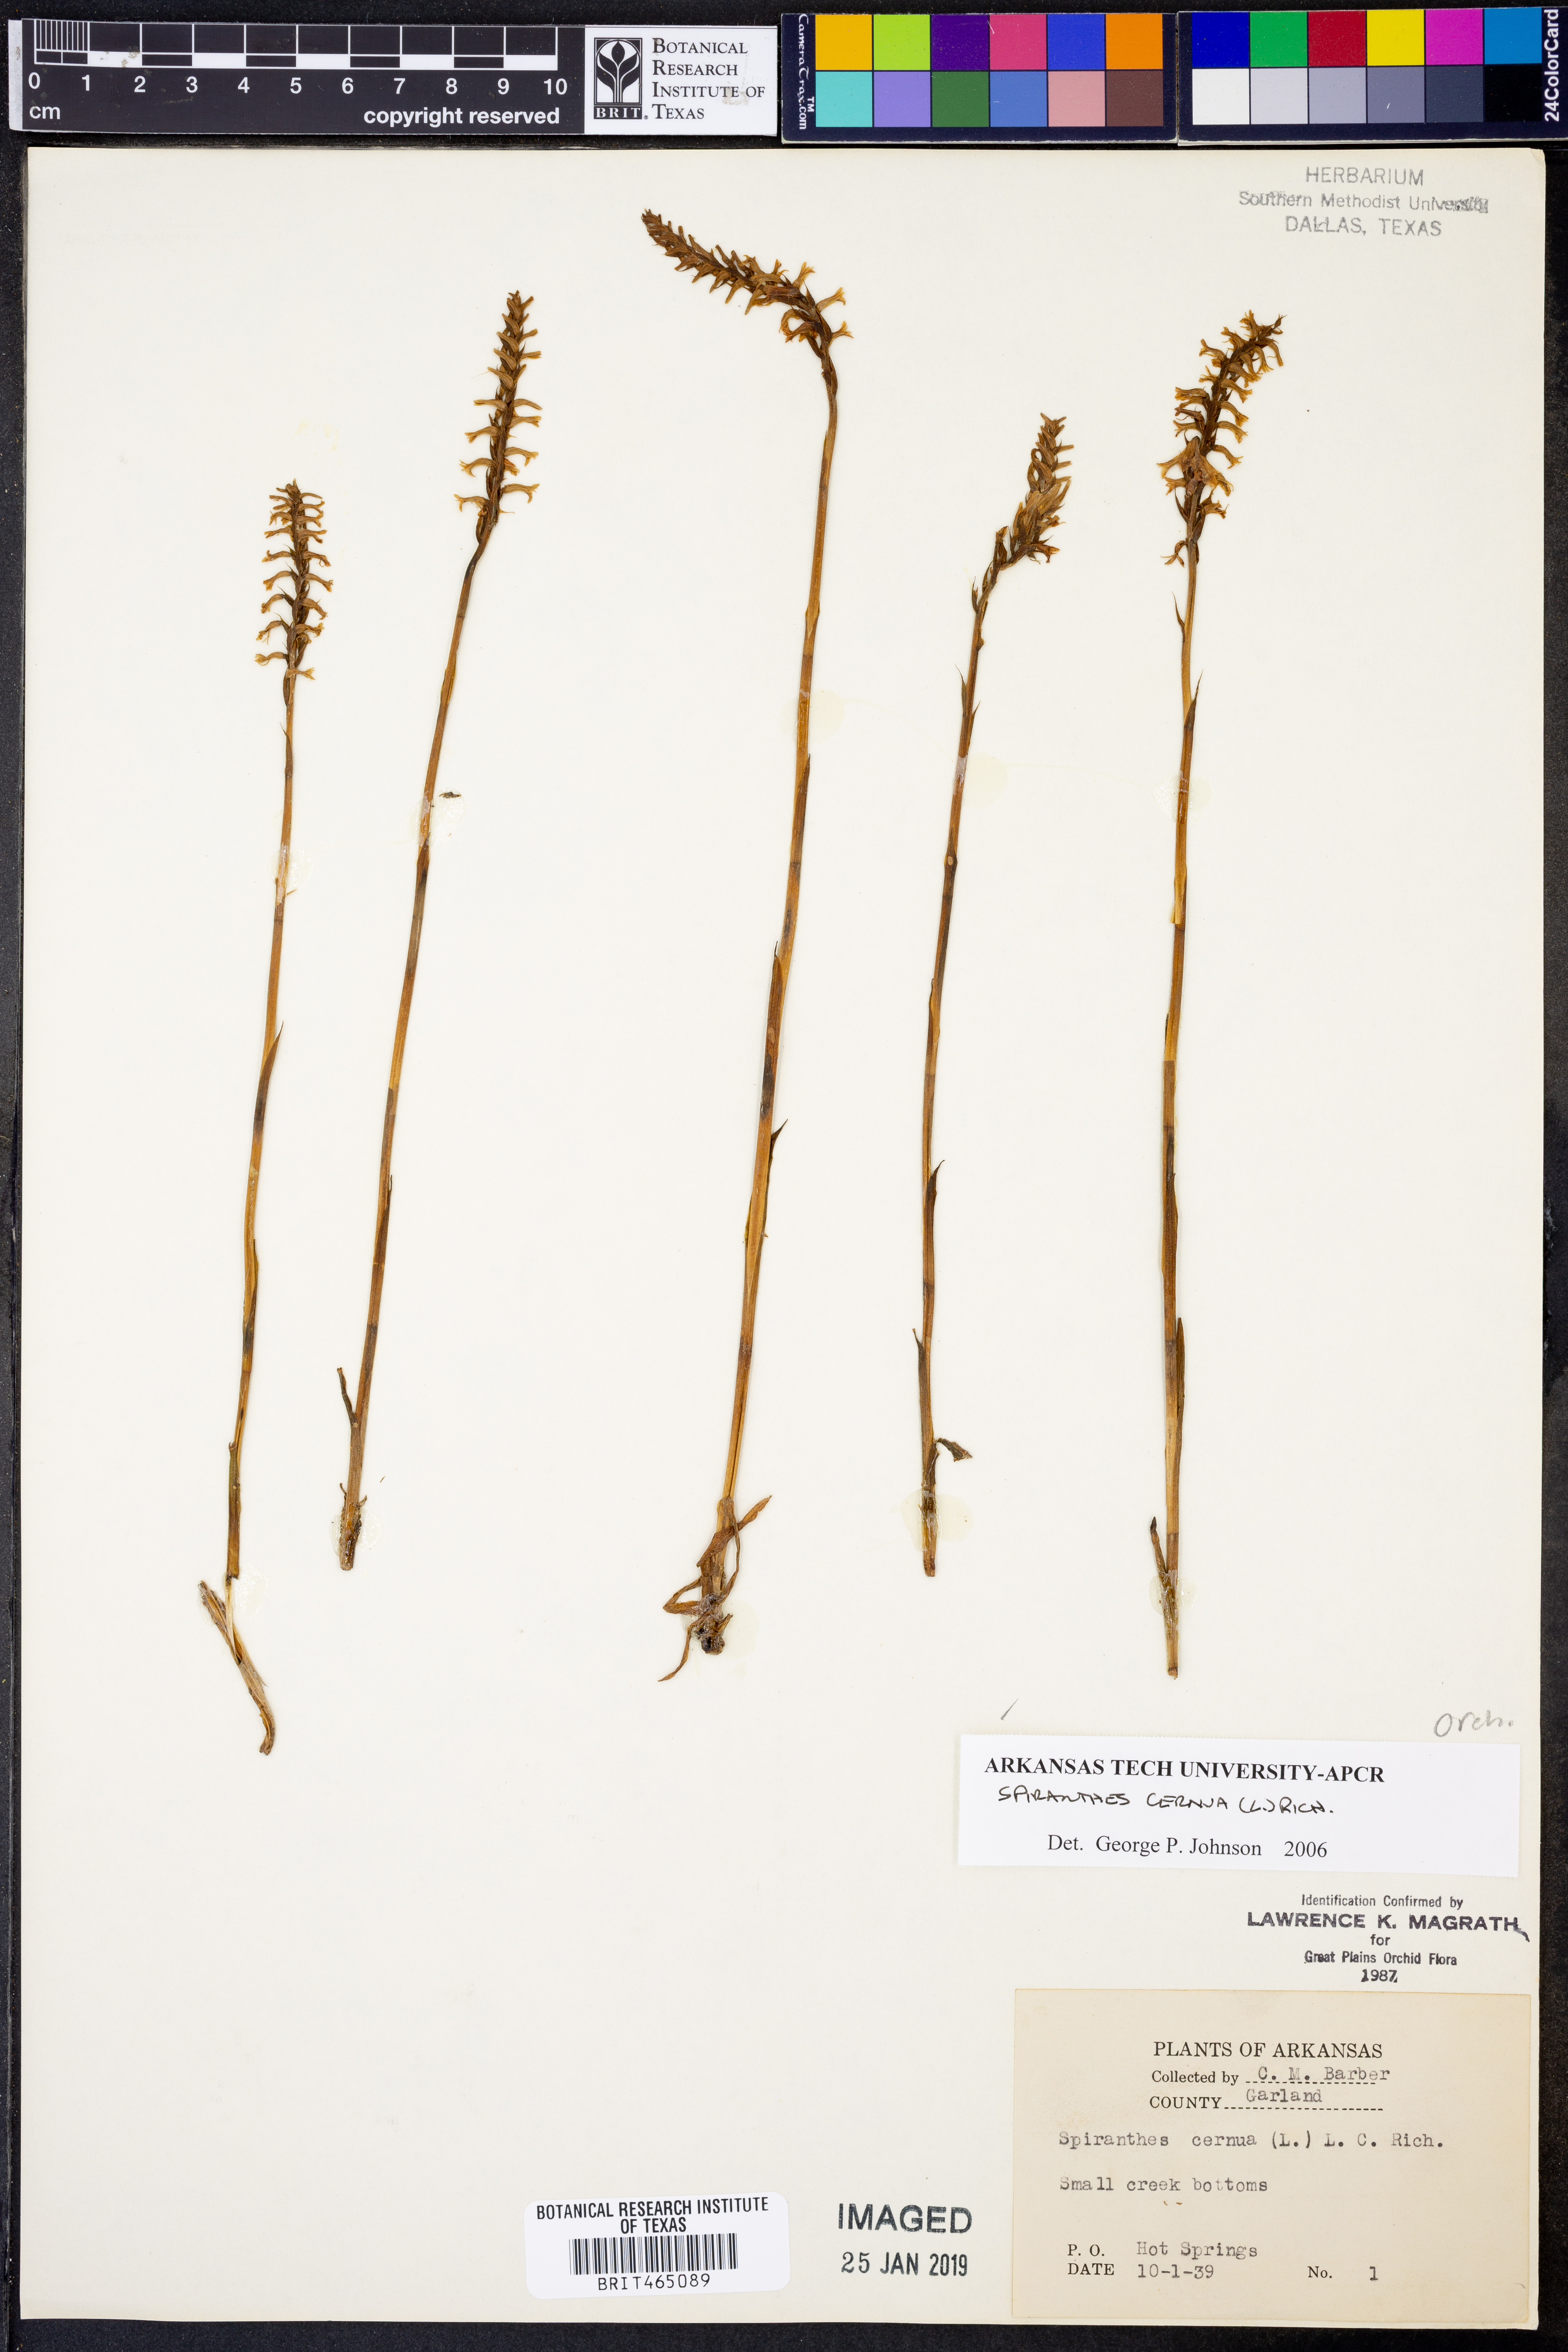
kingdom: Plantae
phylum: Tracheophyta
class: Liliopsida
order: Asparagales
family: Orchidaceae
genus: Spiranthes
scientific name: Spiranthes cernua
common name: Dropping ladies'-tresses
